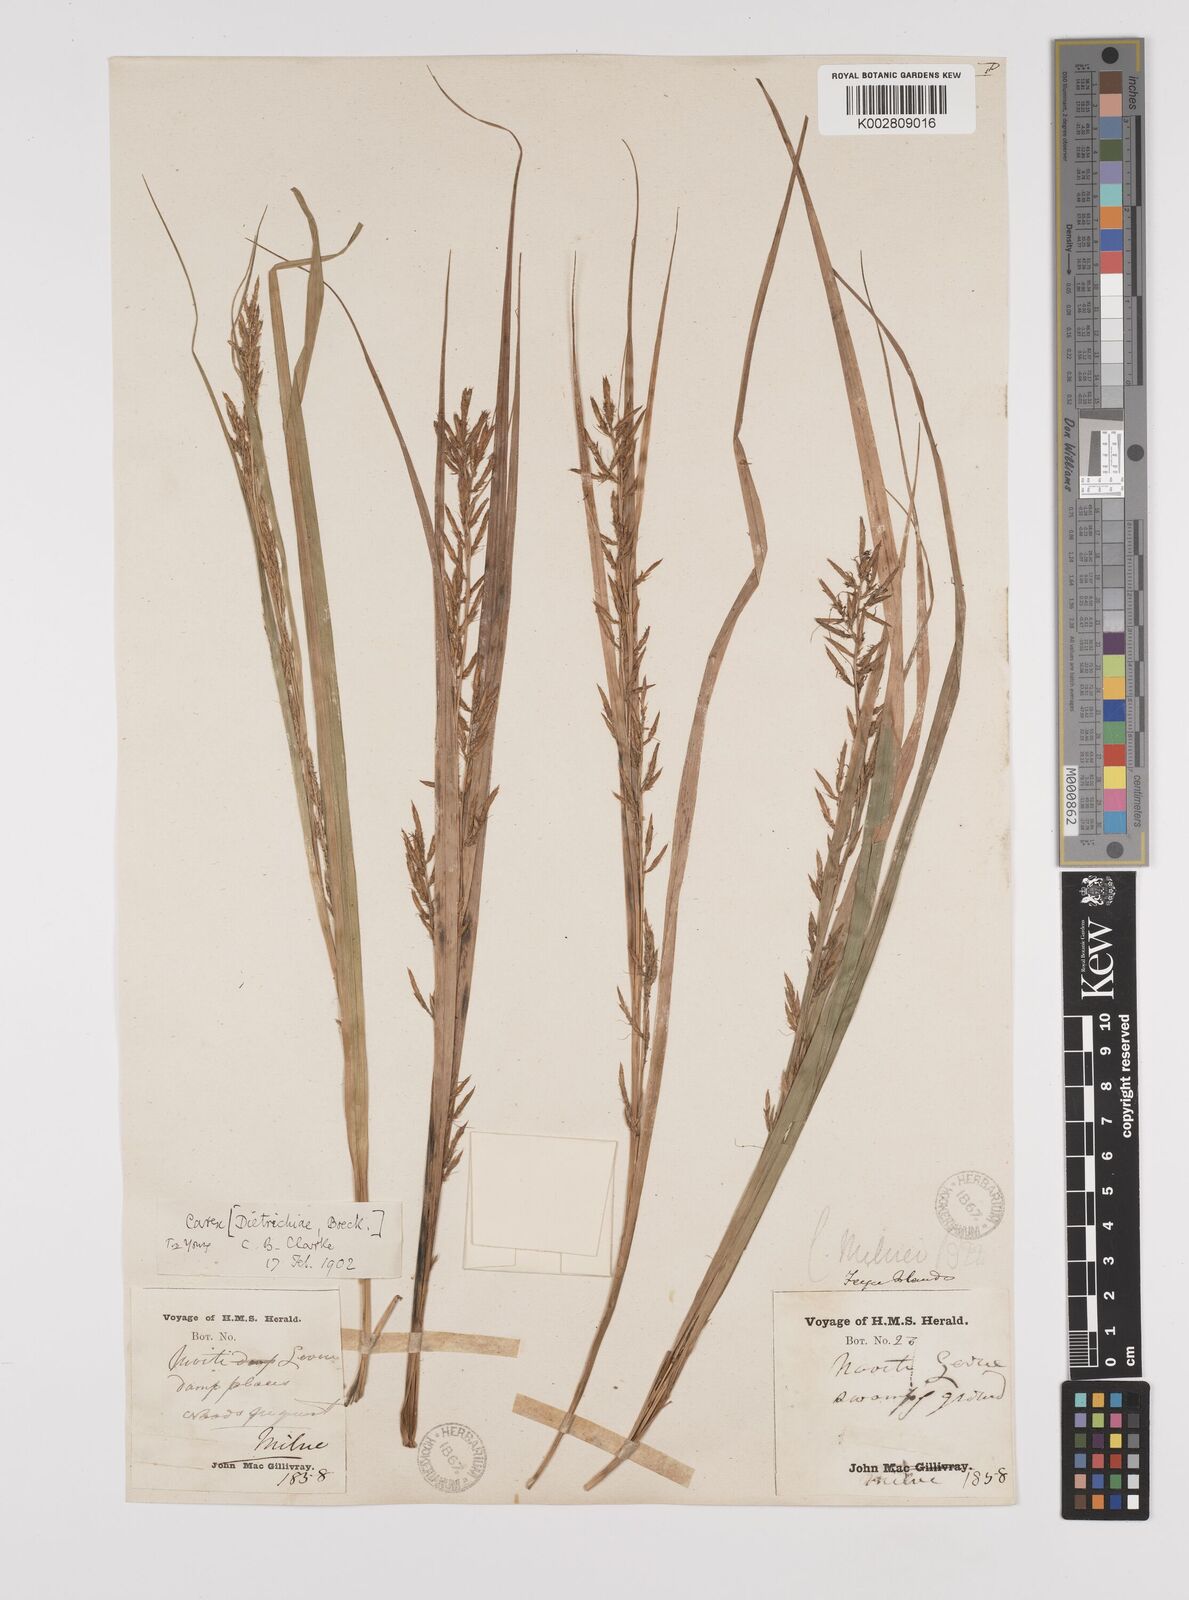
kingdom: Plantae
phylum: Tracheophyta
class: Liliopsida
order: Poales
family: Cyperaceae
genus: Carex
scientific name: Carex indica
